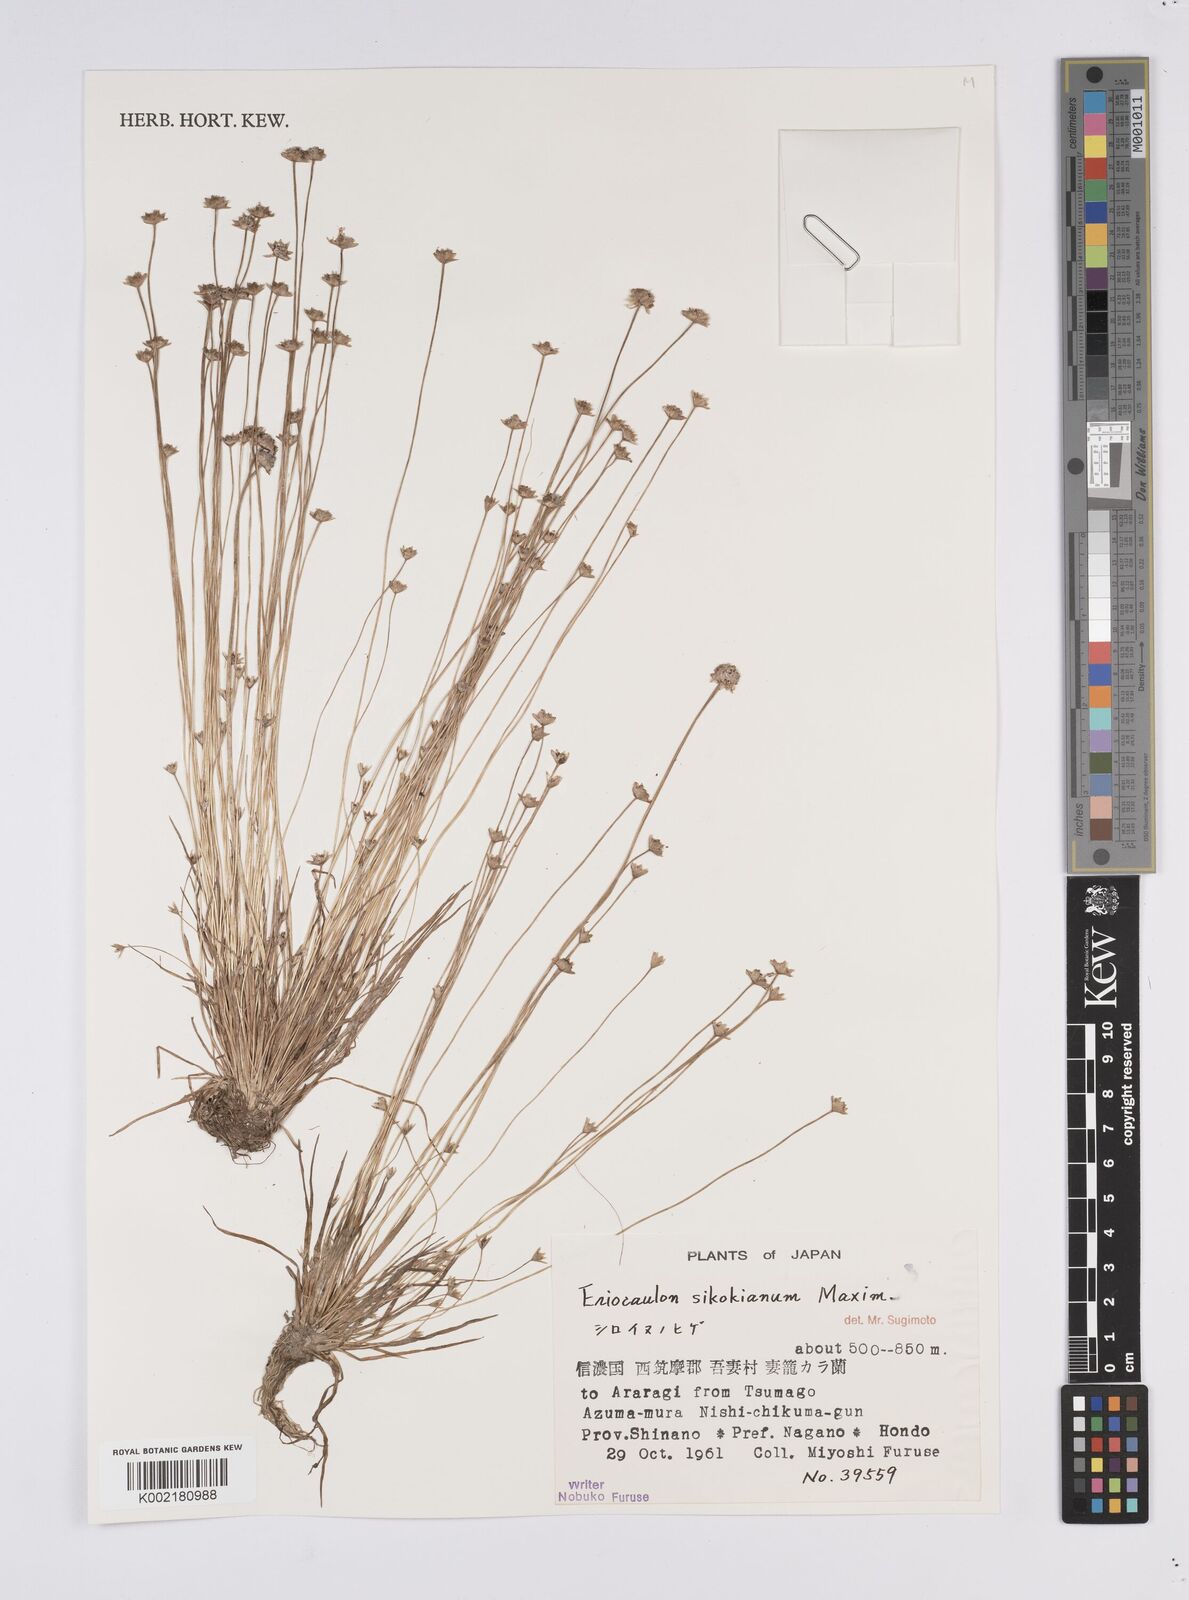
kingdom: Plantae
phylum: Tracheophyta
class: Liliopsida
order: Poales
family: Eriocaulaceae
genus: Eriocaulon
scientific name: Eriocaulon miquelianum
